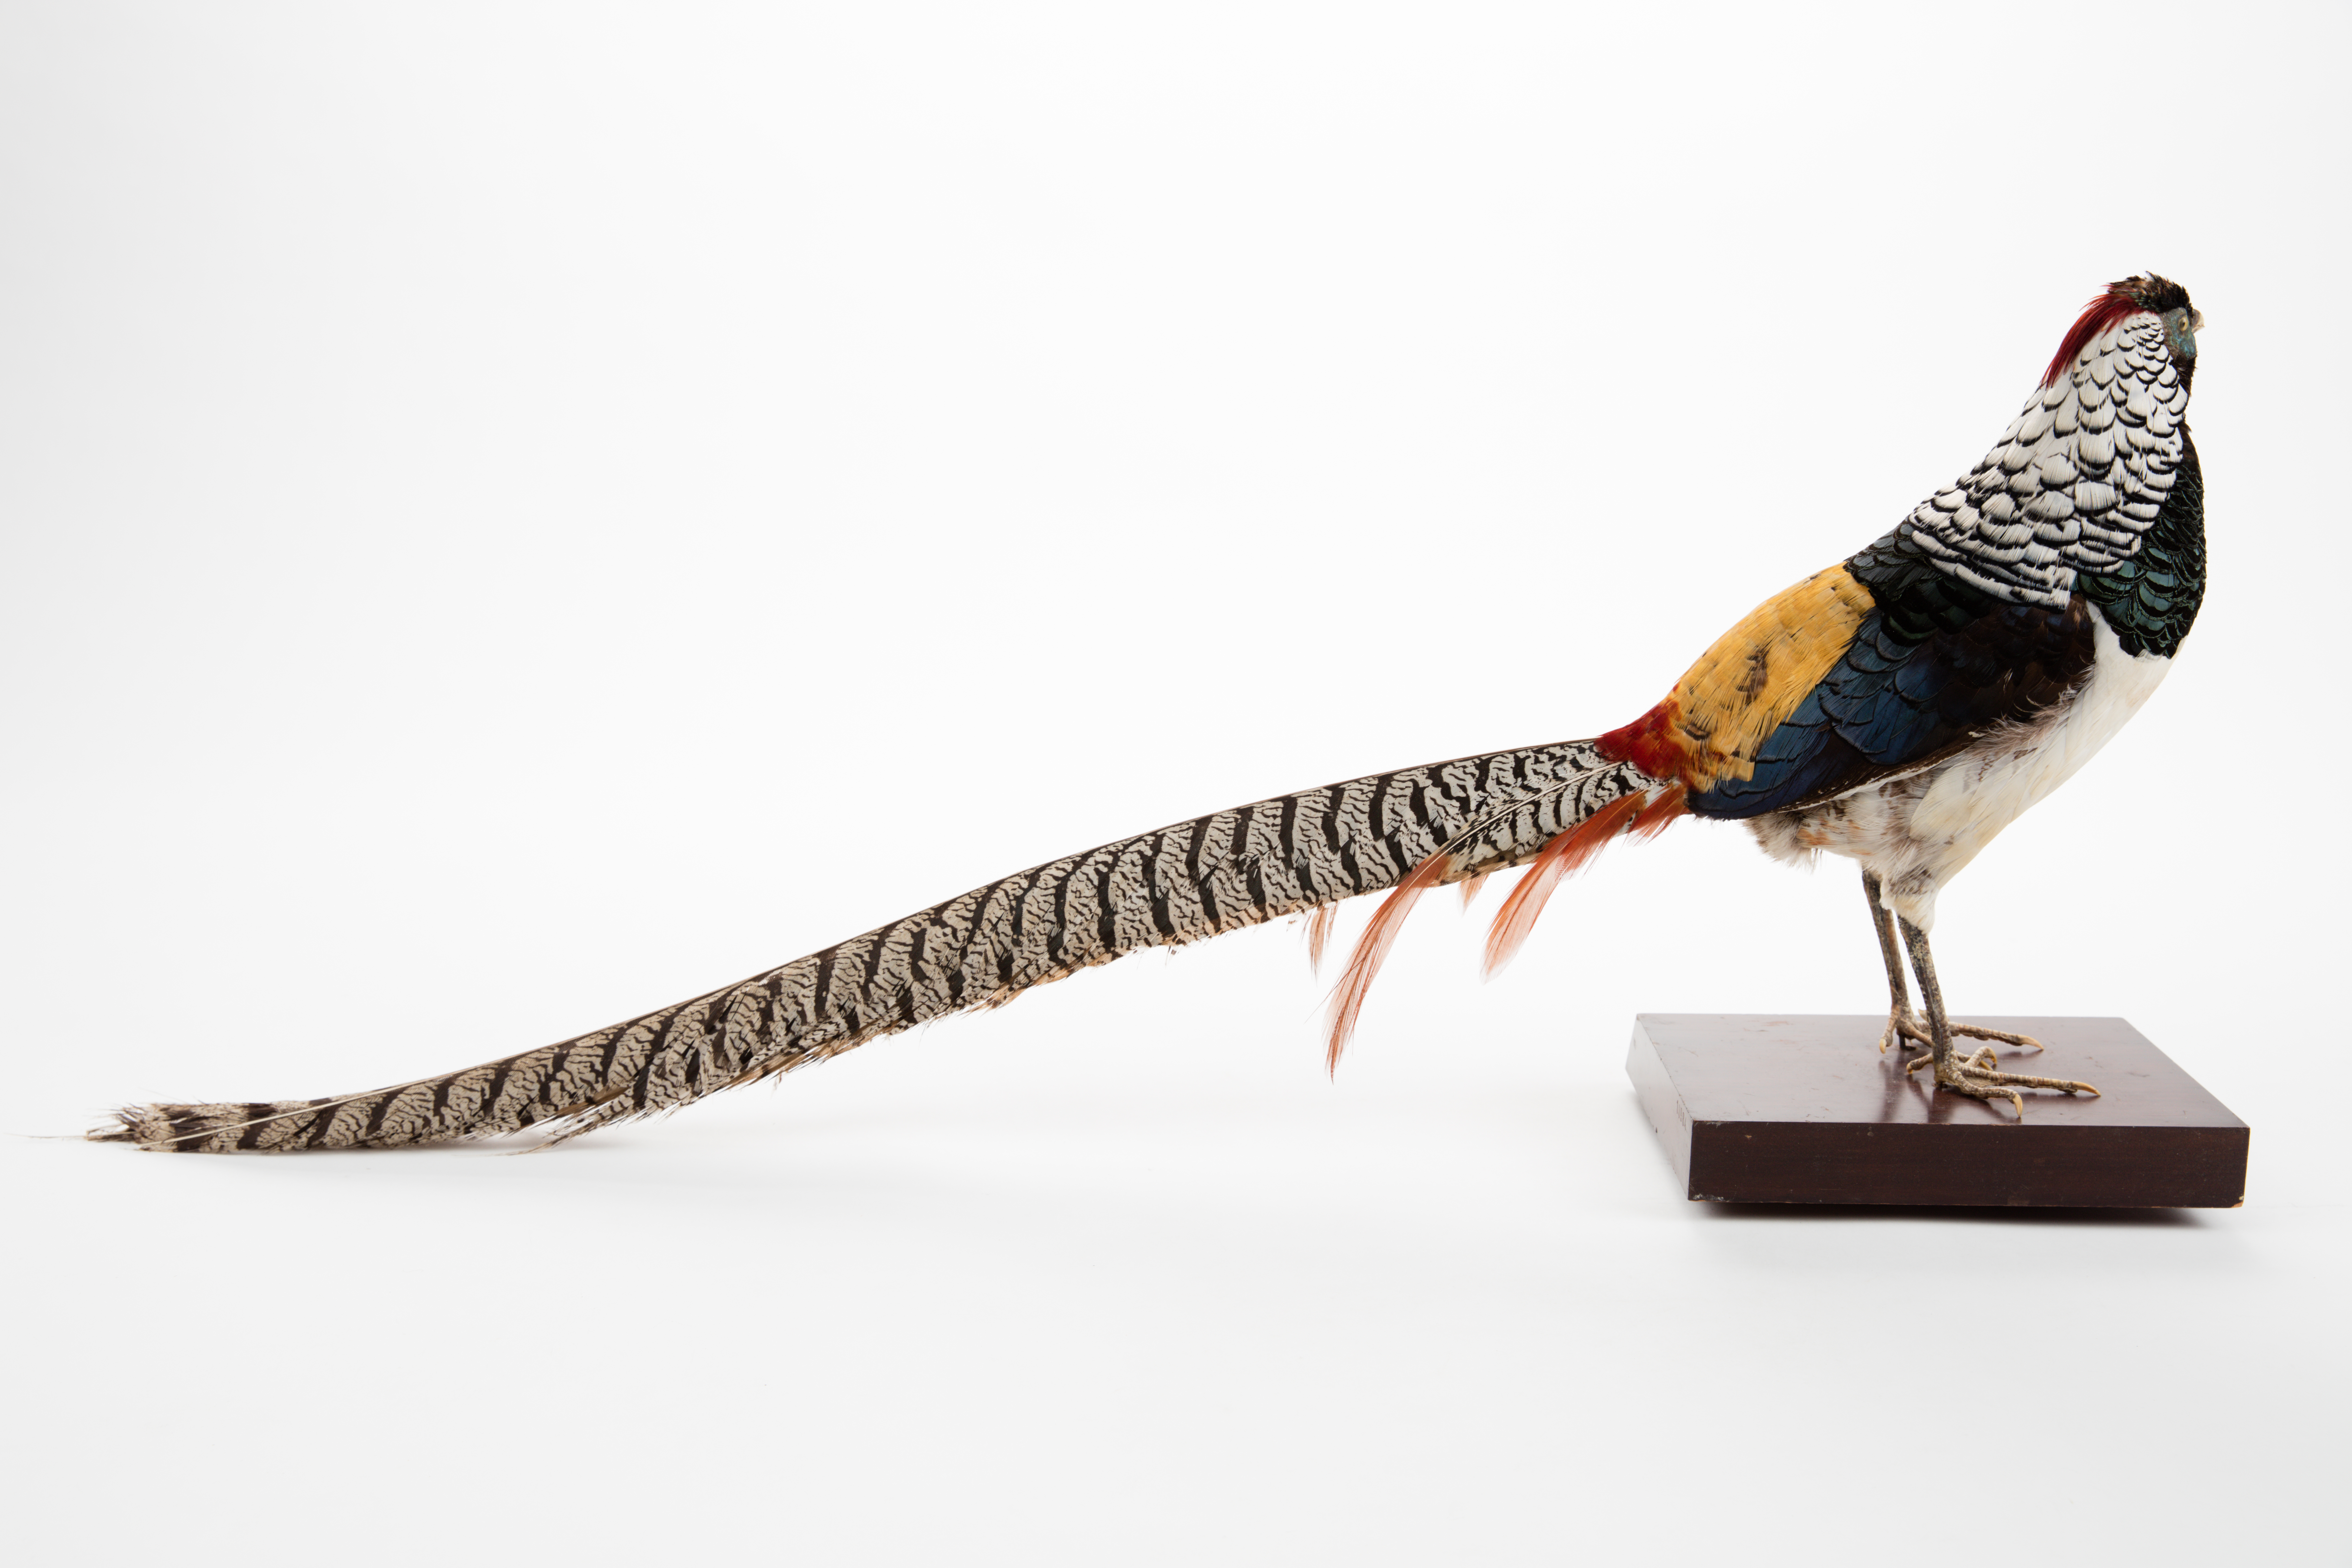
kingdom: Animalia
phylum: Chordata
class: Aves
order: Galliformes
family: Phasianidae
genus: Chrysolophus
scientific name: Chrysolophus amherstiae
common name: Lady amherst's pheasant
